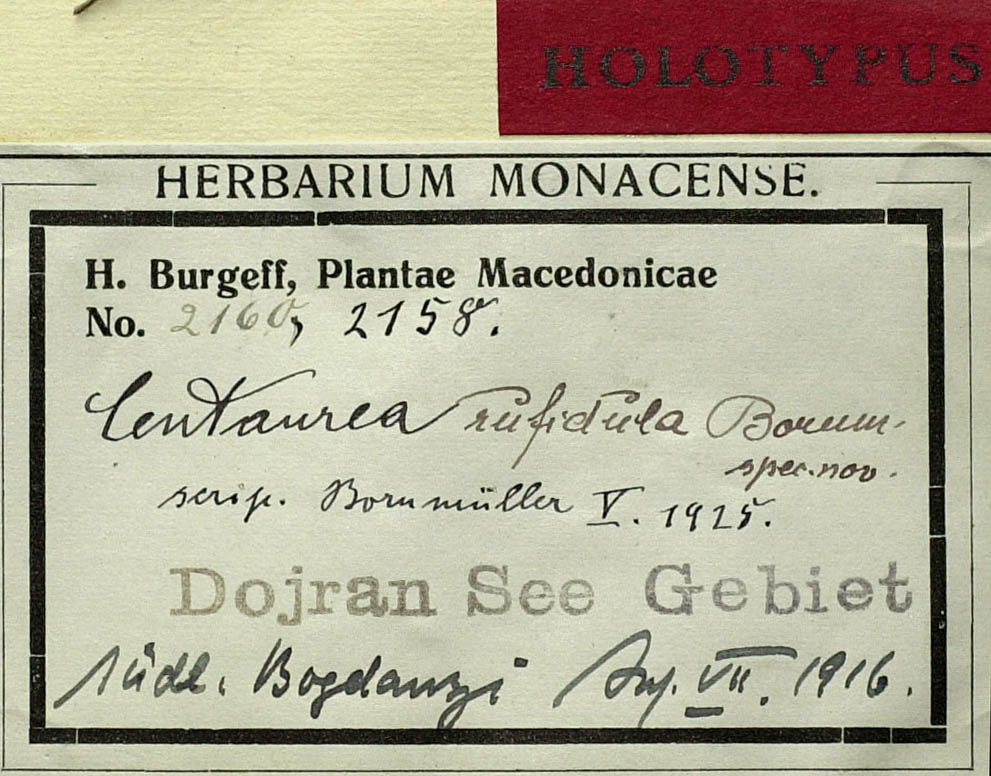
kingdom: Plantae
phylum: Tracheophyta
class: Magnoliopsida
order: Asterales
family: Asteraceae
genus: Centaurea
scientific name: Centaurea rufidula
